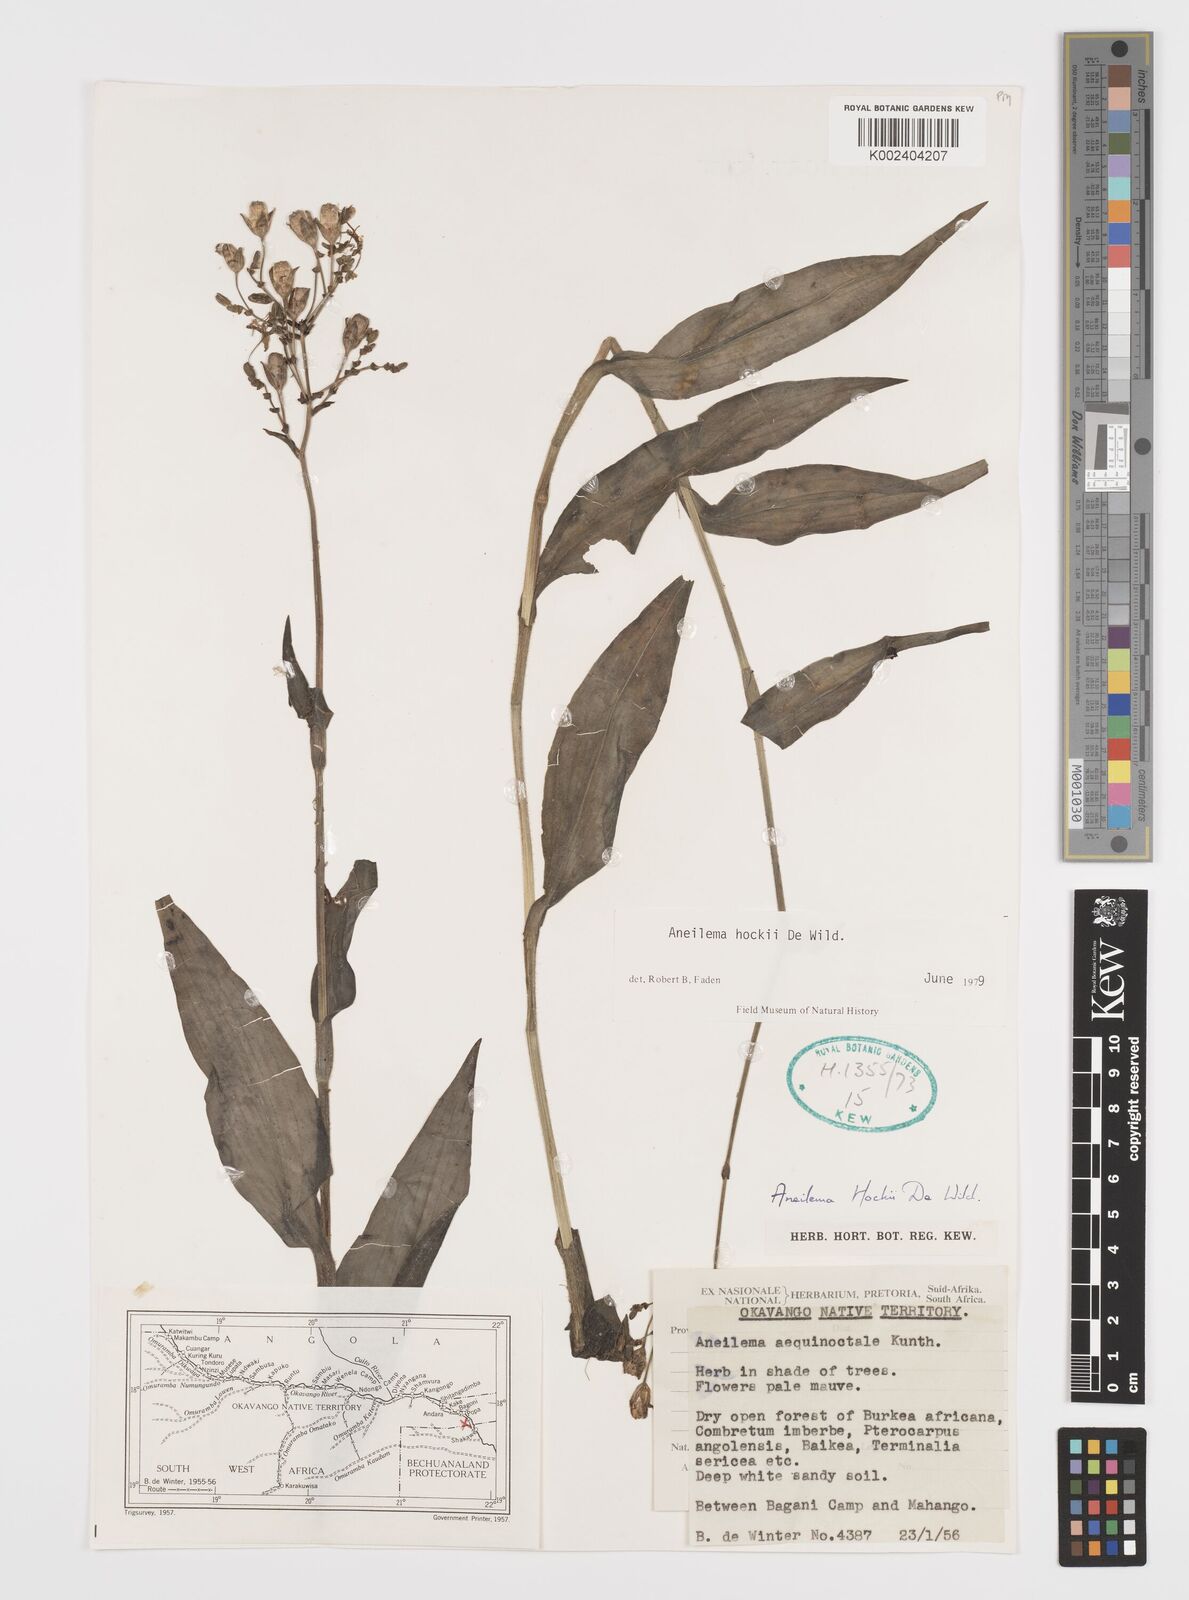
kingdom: Plantae
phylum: Tracheophyta
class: Liliopsida
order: Commelinales
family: Commelinaceae
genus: Aneilema
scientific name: Aneilema hockii
